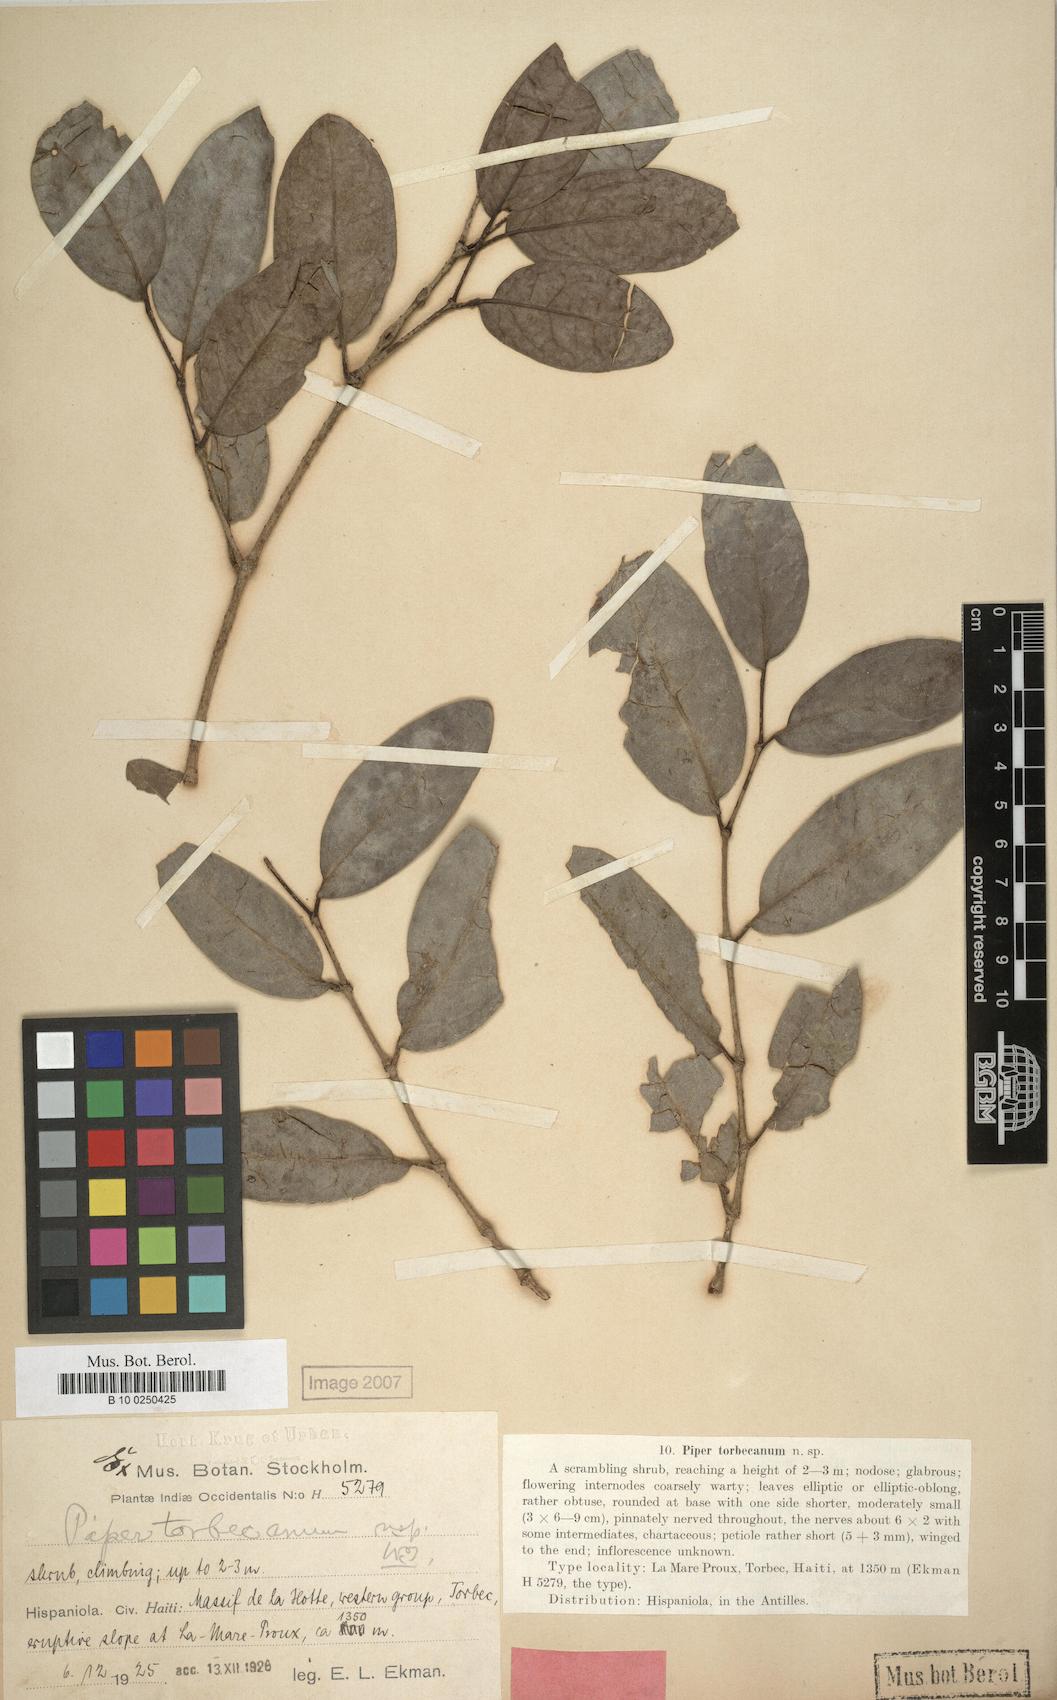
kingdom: Plantae
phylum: Tracheophyta
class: Magnoliopsida
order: Piperales
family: Piperaceae
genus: Piper
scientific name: Piper swartzianum
